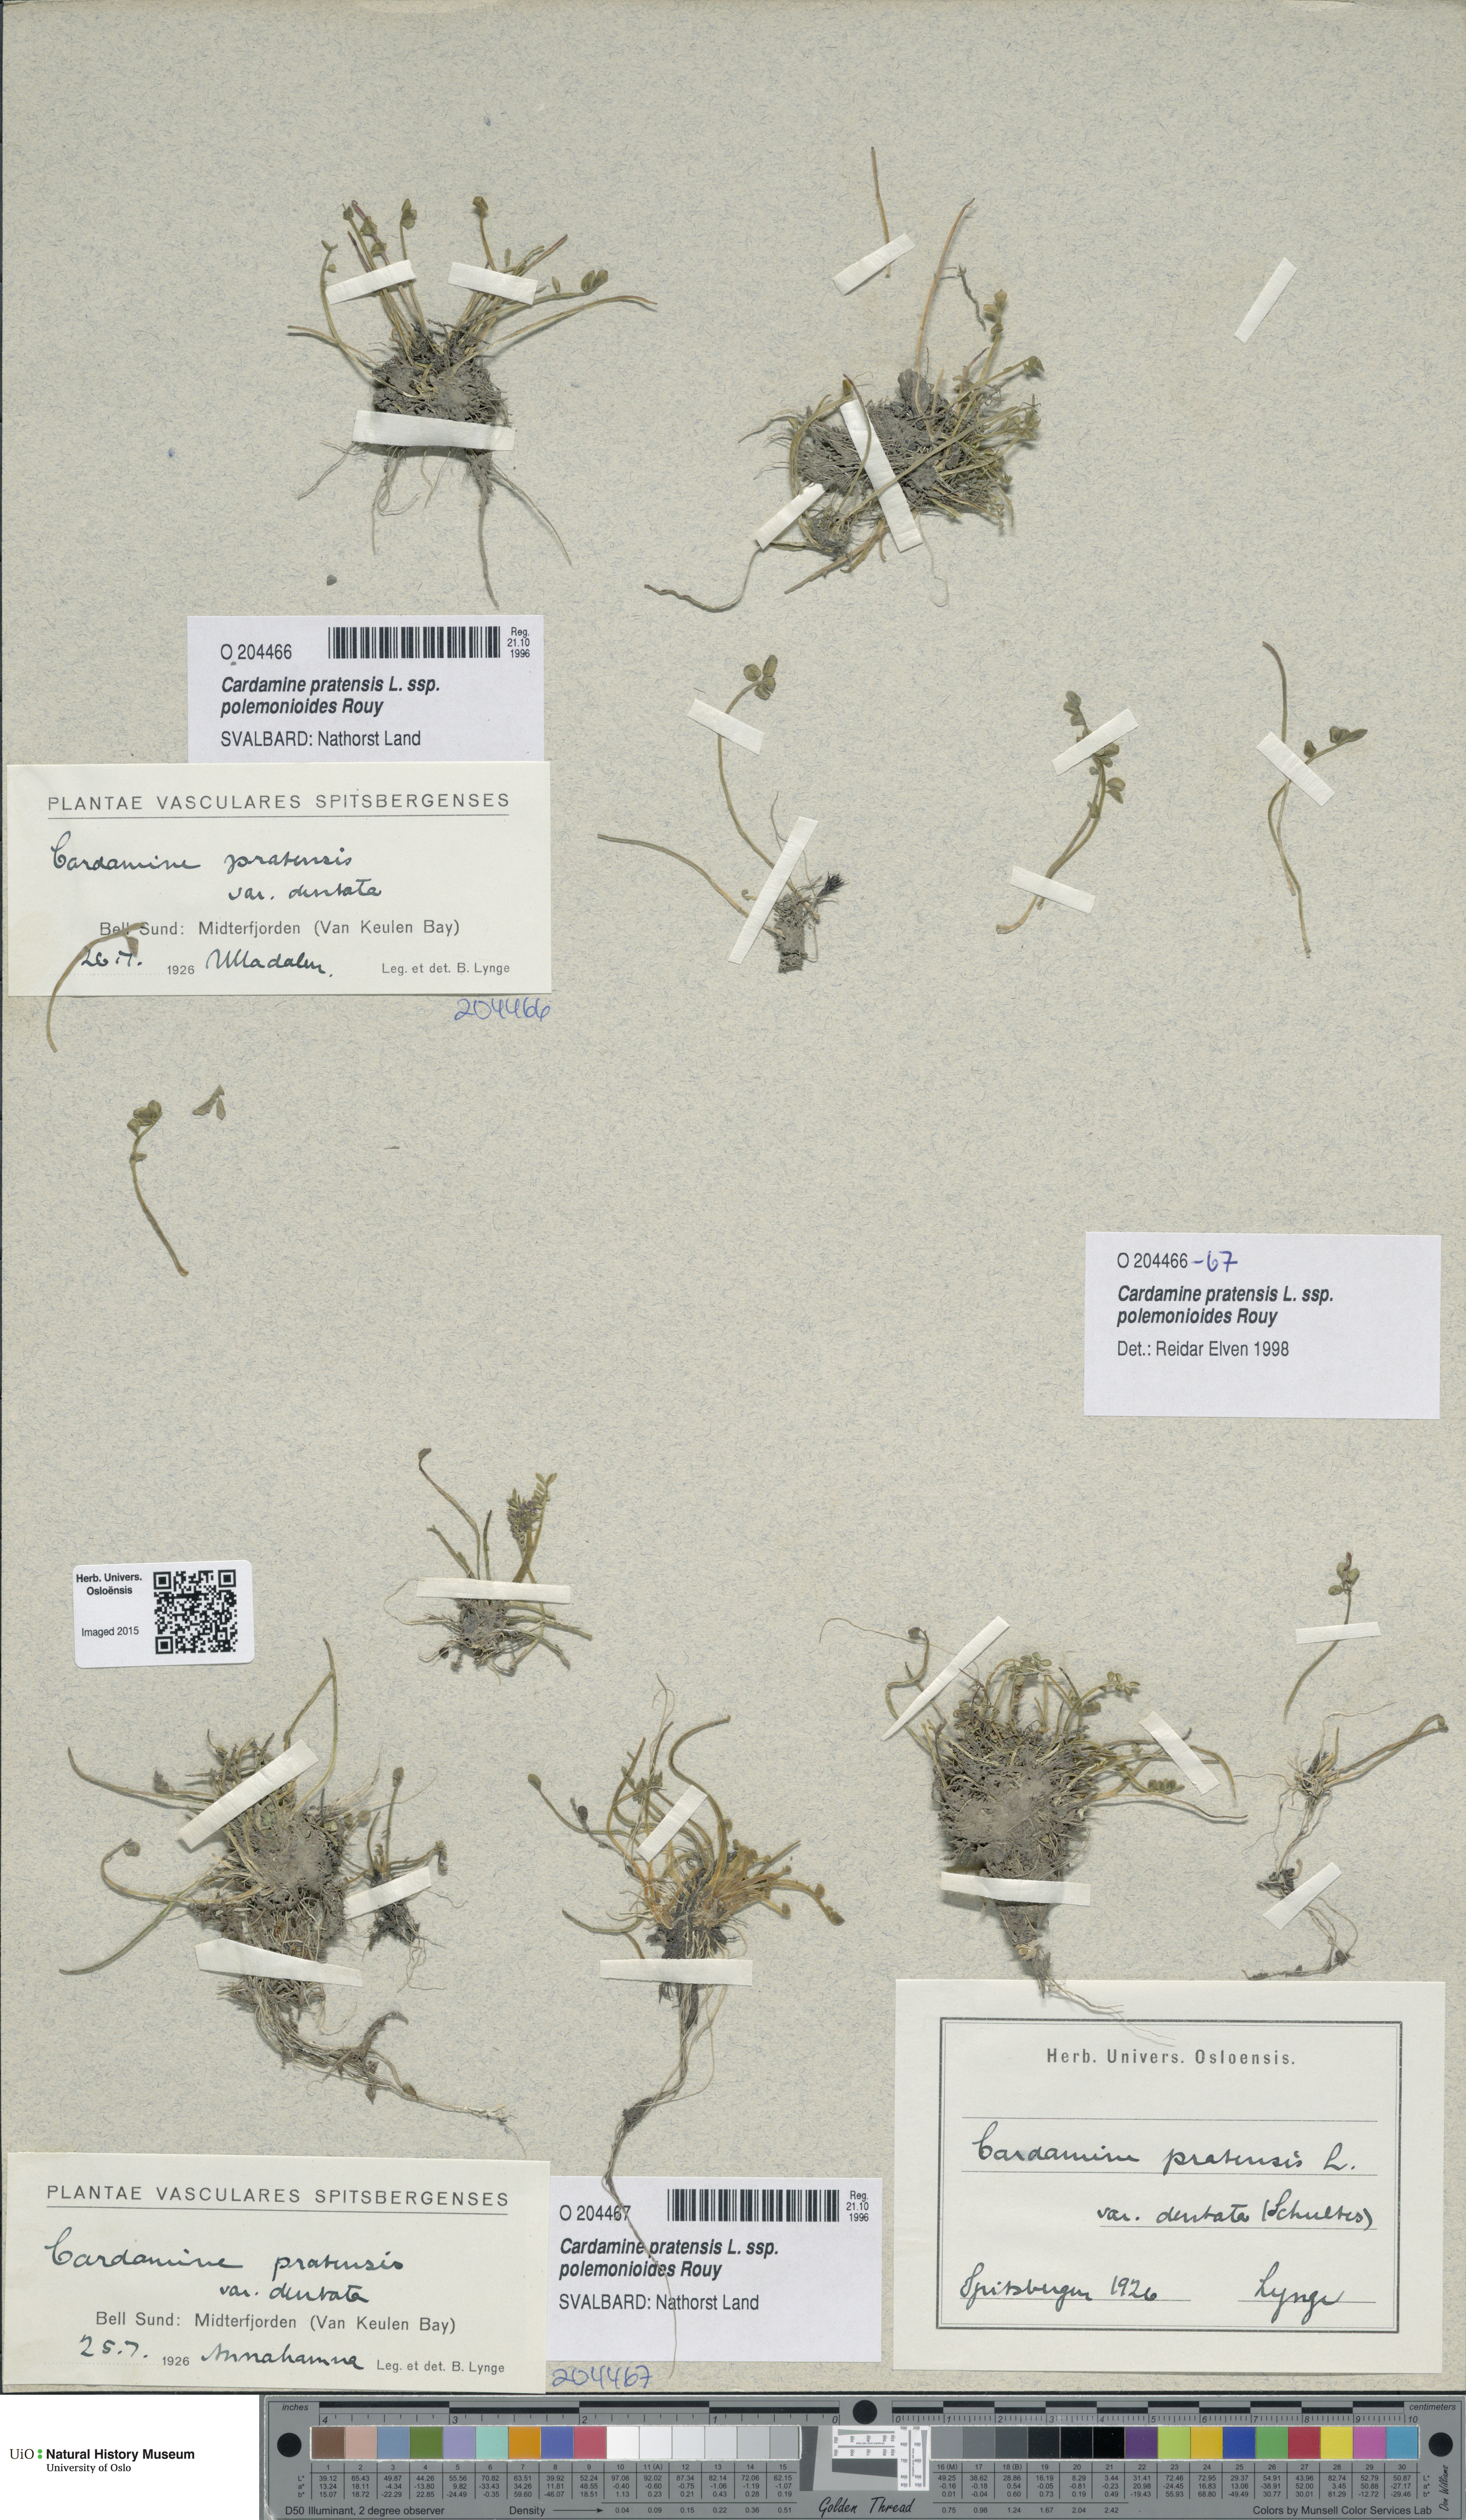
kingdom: Plantae
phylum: Tracheophyta
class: Magnoliopsida
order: Brassicales
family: Brassicaceae
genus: Cardamine
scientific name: Cardamine nymanii
